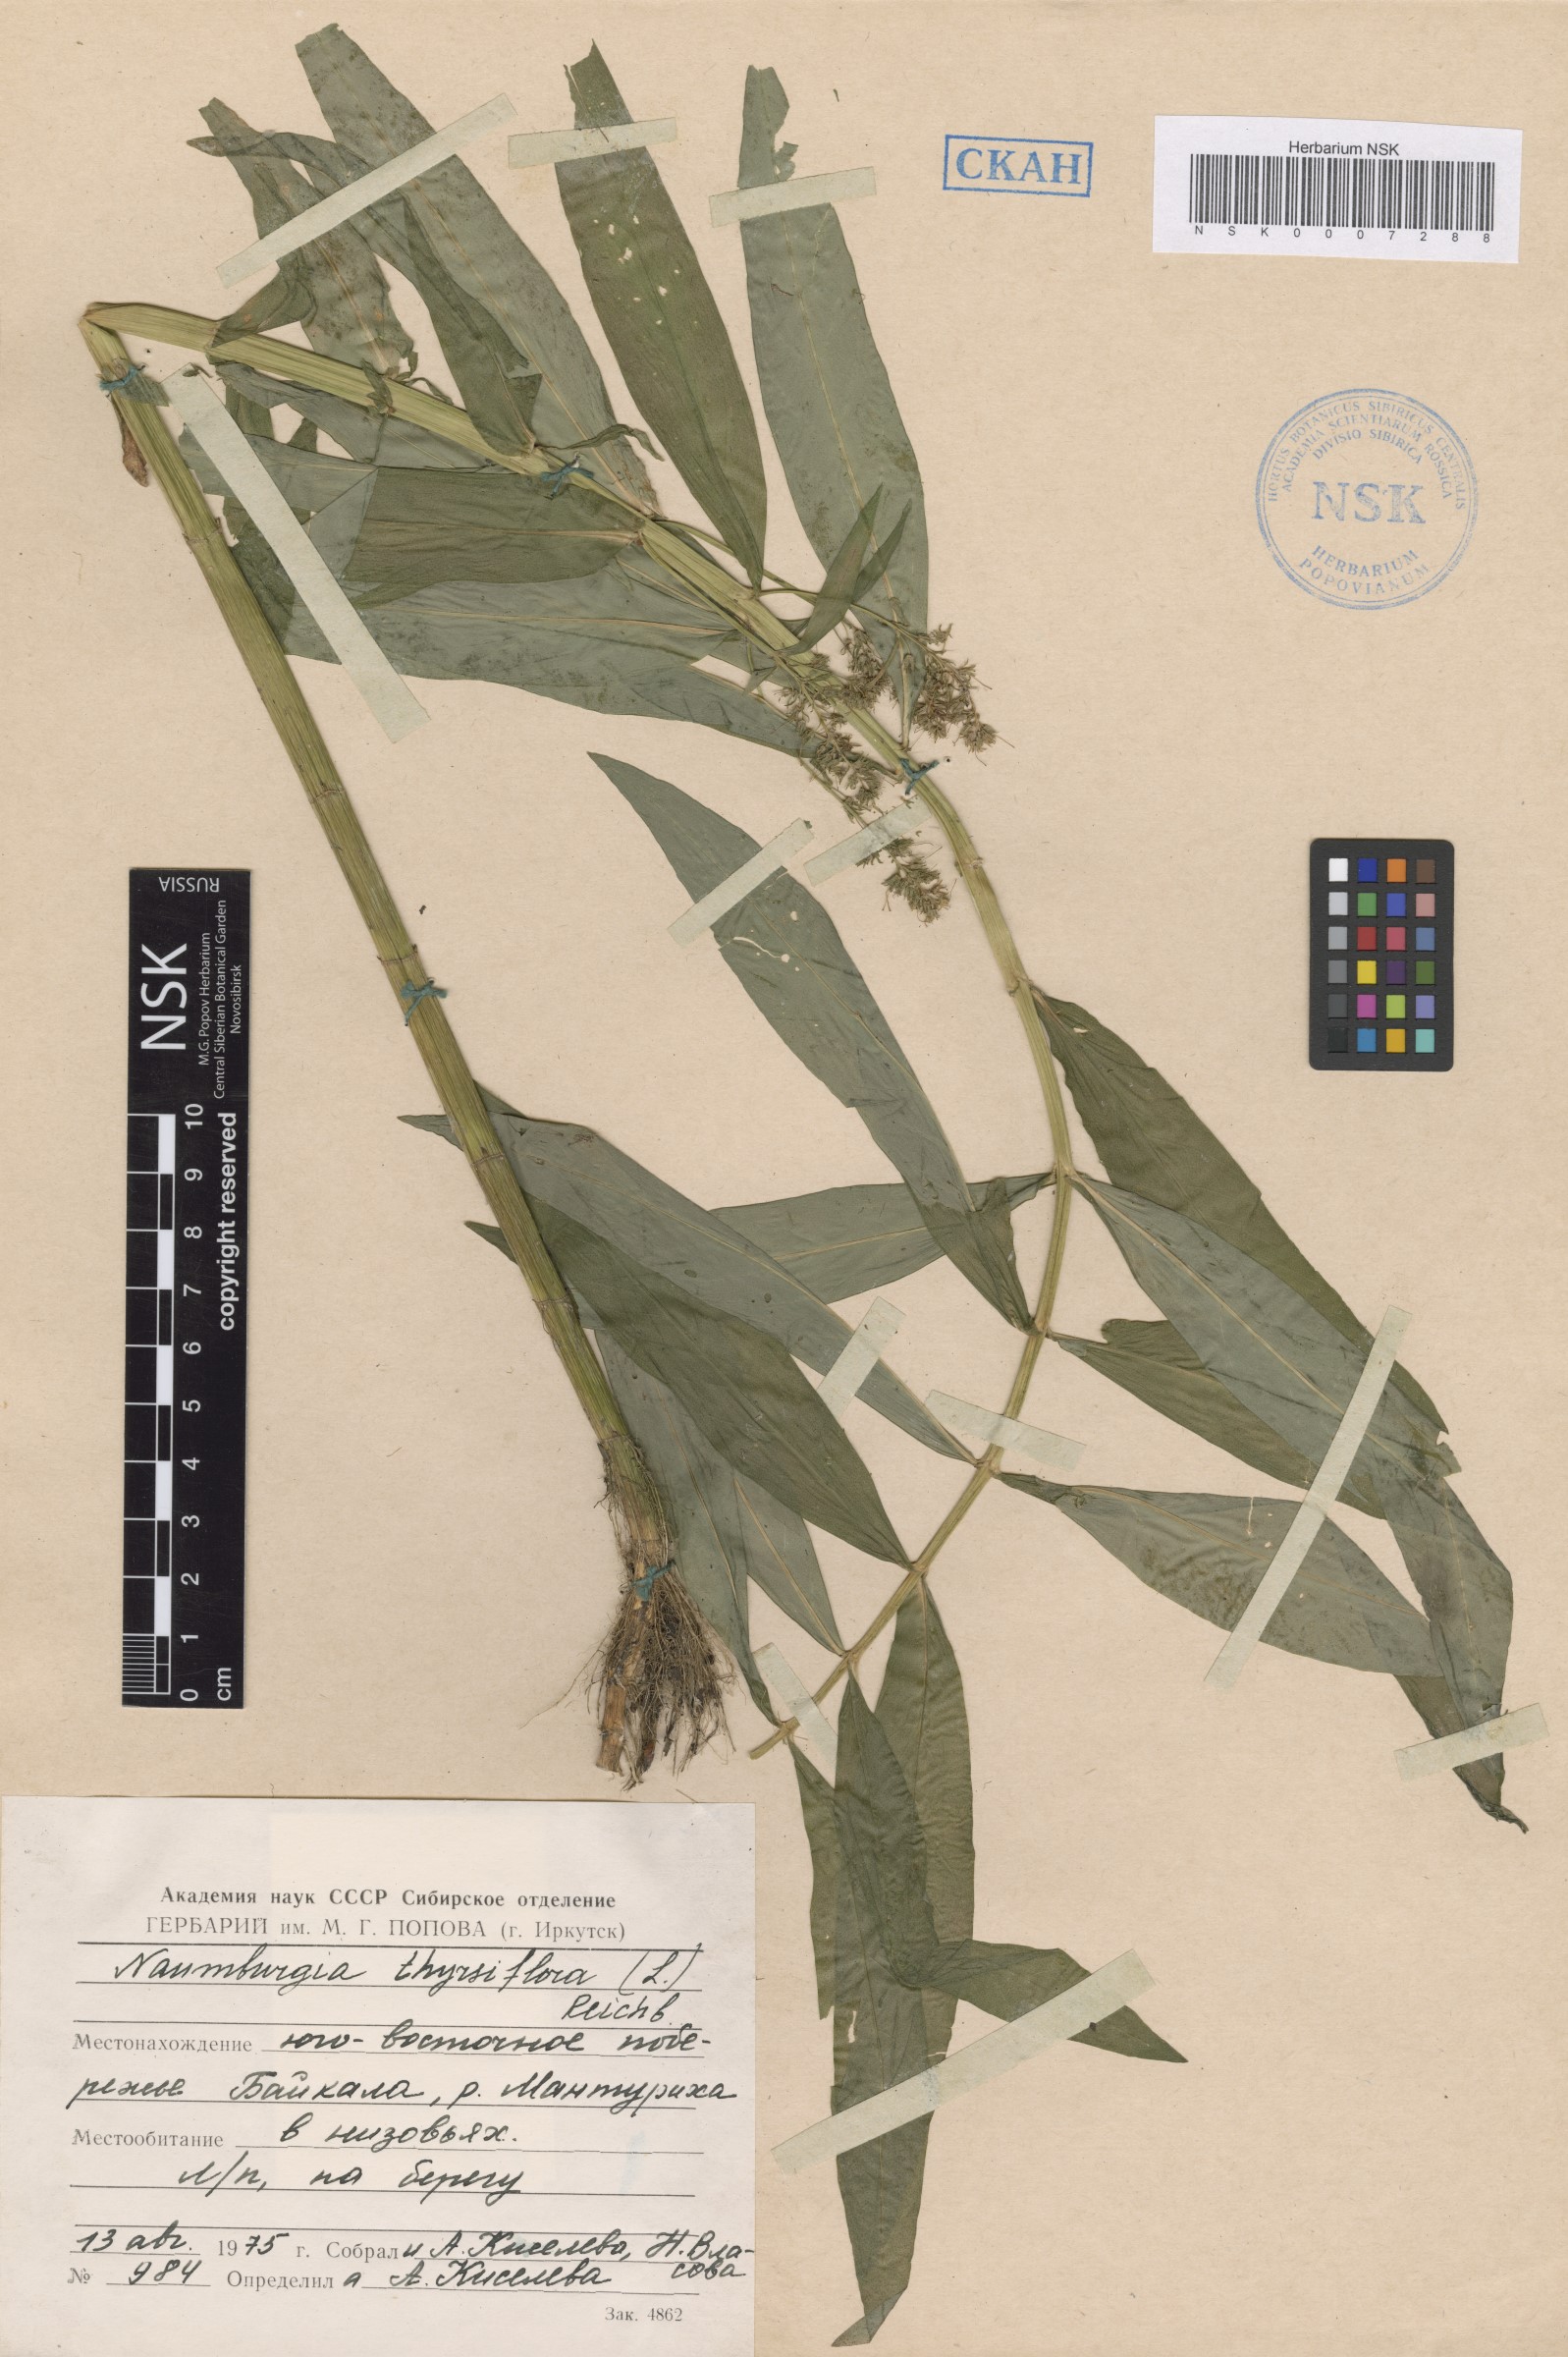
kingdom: Plantae
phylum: Tracheophyta
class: Magnoliopsida
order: Ericales
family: Primulaceae
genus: Lysimachia
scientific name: Lysimachia thyrsiflora
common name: Tufted loosestrife
